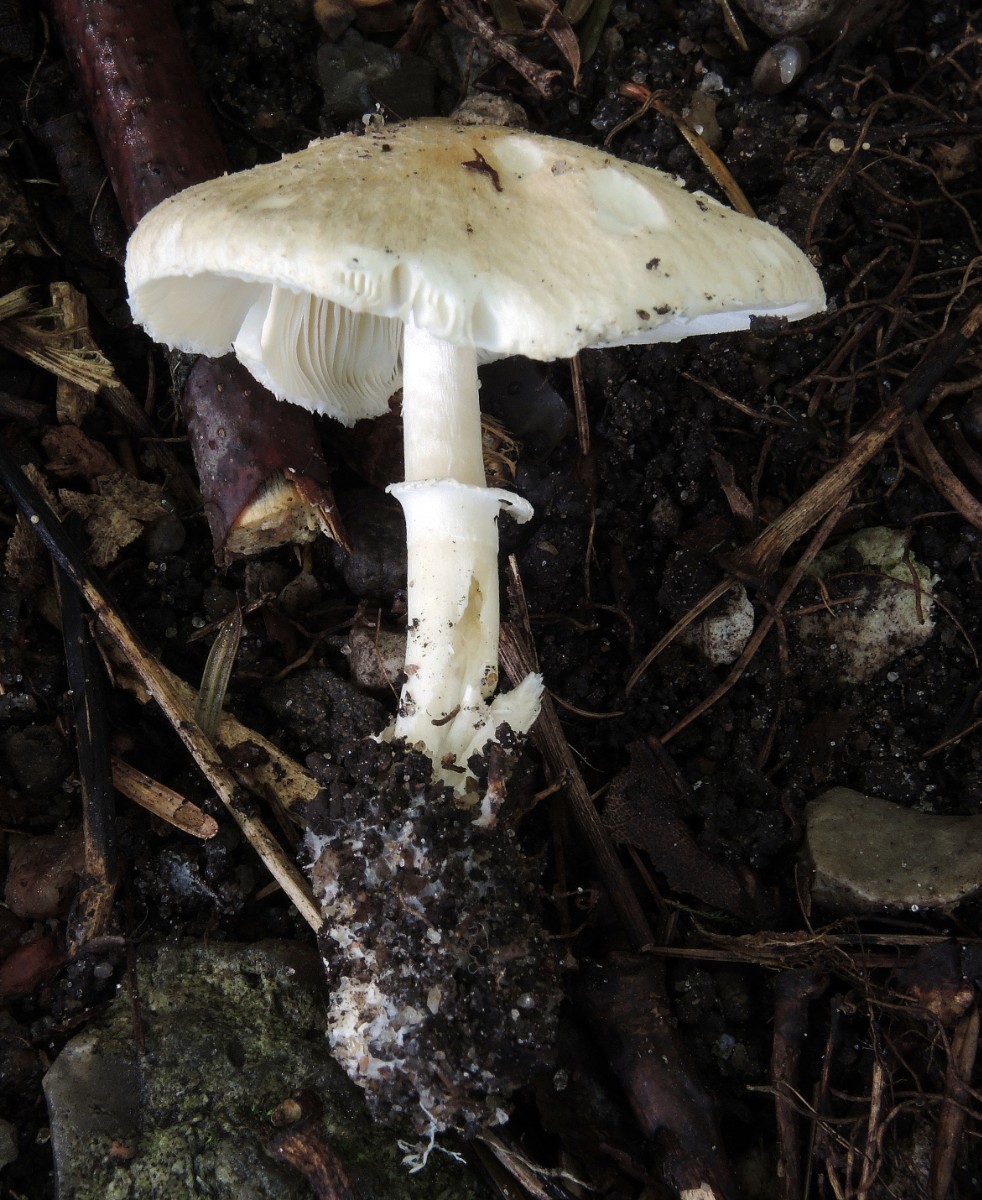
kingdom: Fungi
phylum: Basidiomycota
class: Agaricomycetes
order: Agaricales
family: Agaricaceae
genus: Leucoagaricus
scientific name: Leucoagaricus littoralis
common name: blegrosa silkehat
